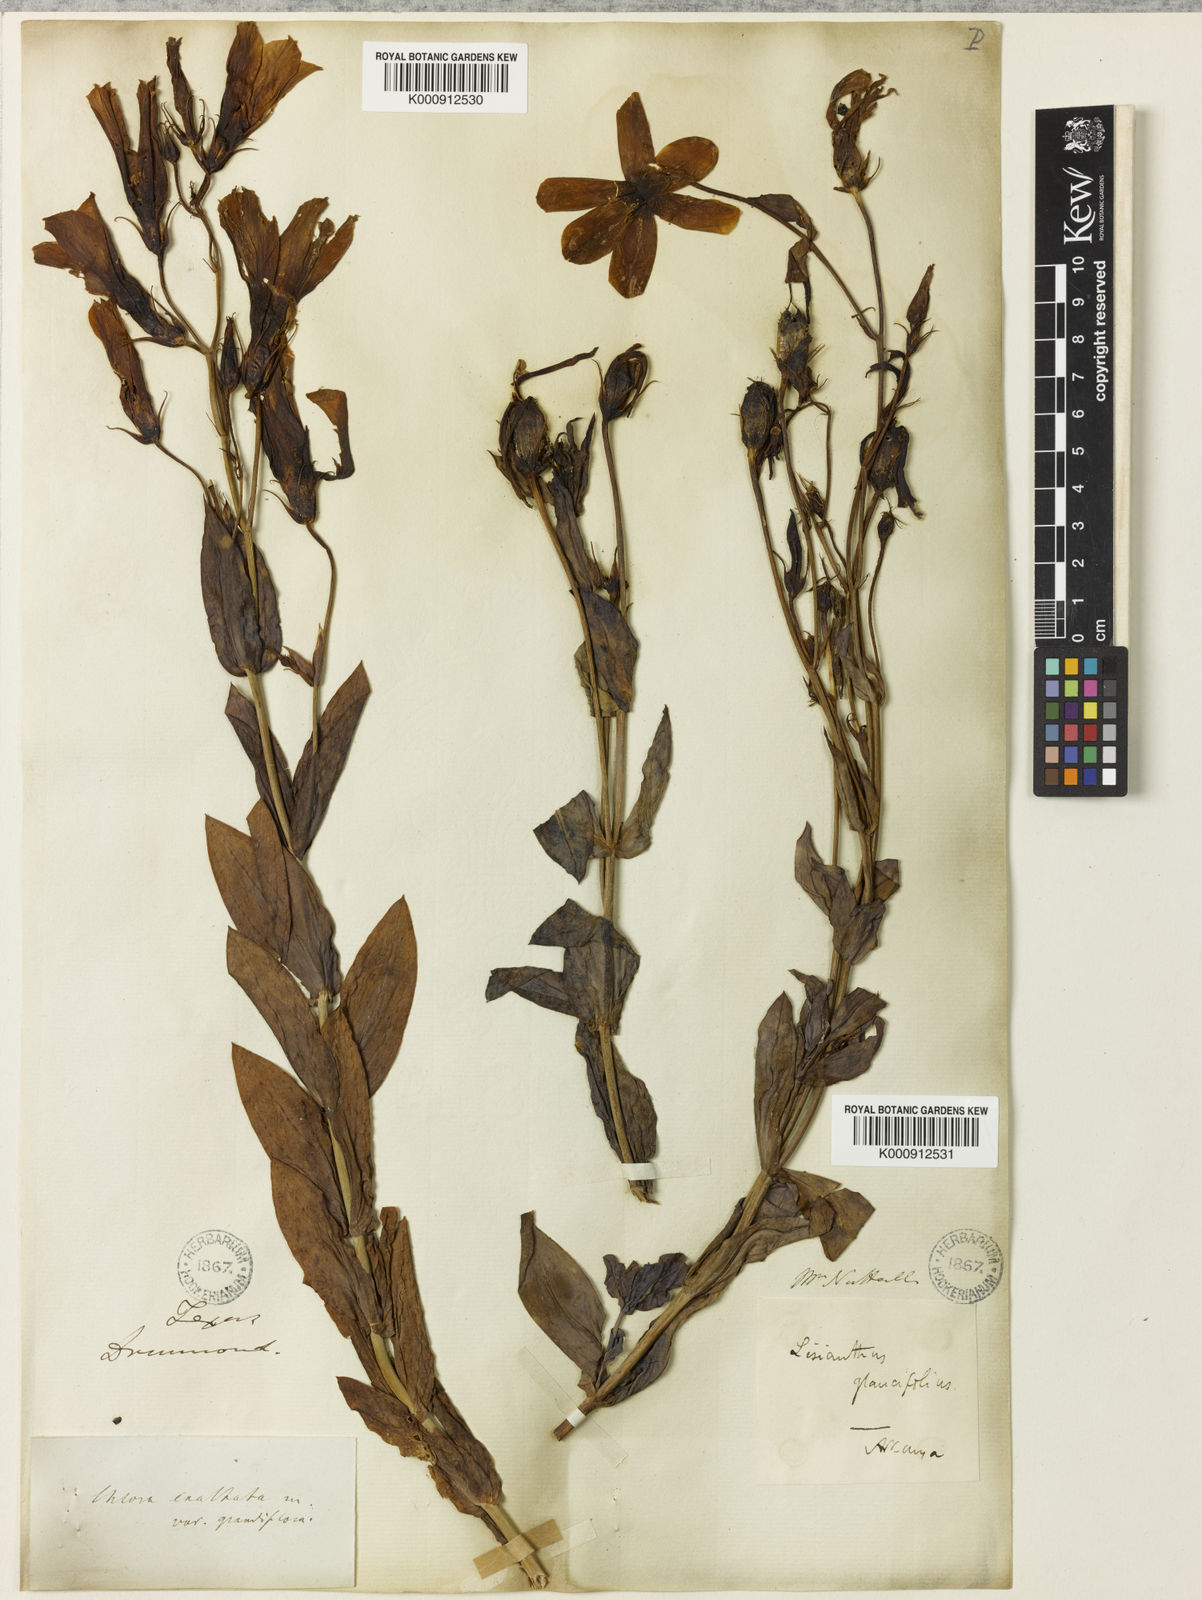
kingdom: Plantae
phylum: Tracheophyta
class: Magnoliopsida
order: Gentianales
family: Gentianaceae
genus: Eustoma
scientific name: Eustoma
